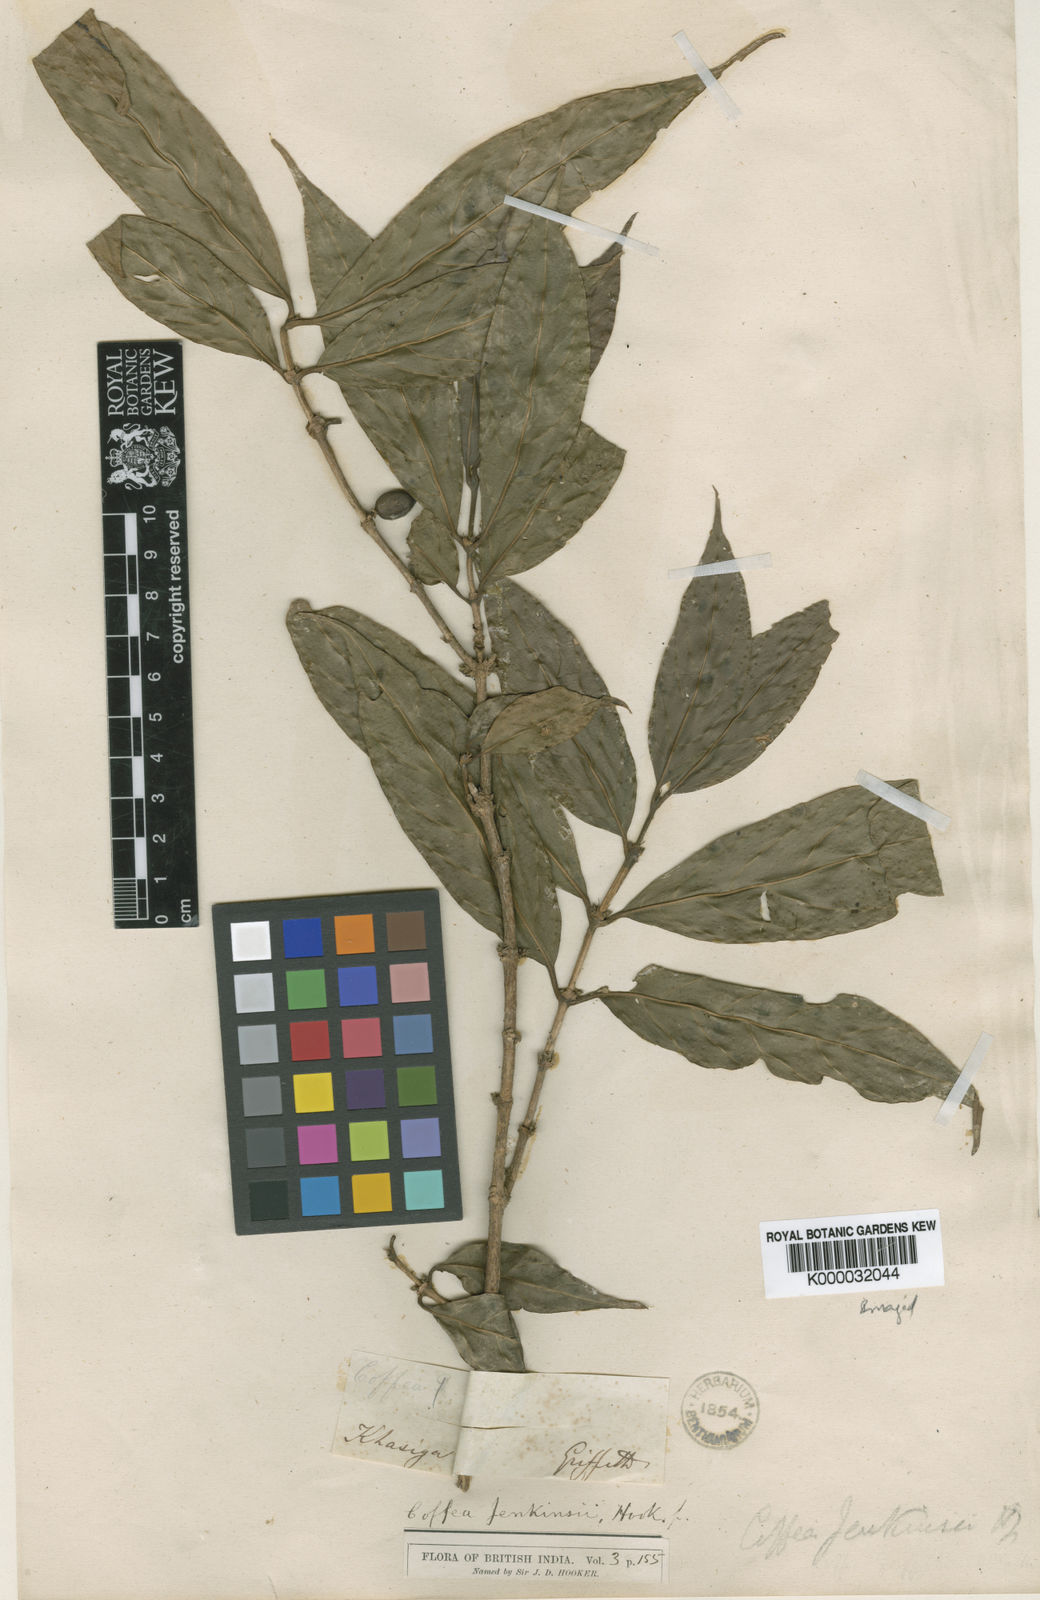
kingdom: Plantae
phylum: Tracheophyta
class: Magnoliopsida
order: Gentianales
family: Rubiaceae
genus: Nostolachma
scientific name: Nostolachma jenkinsii
